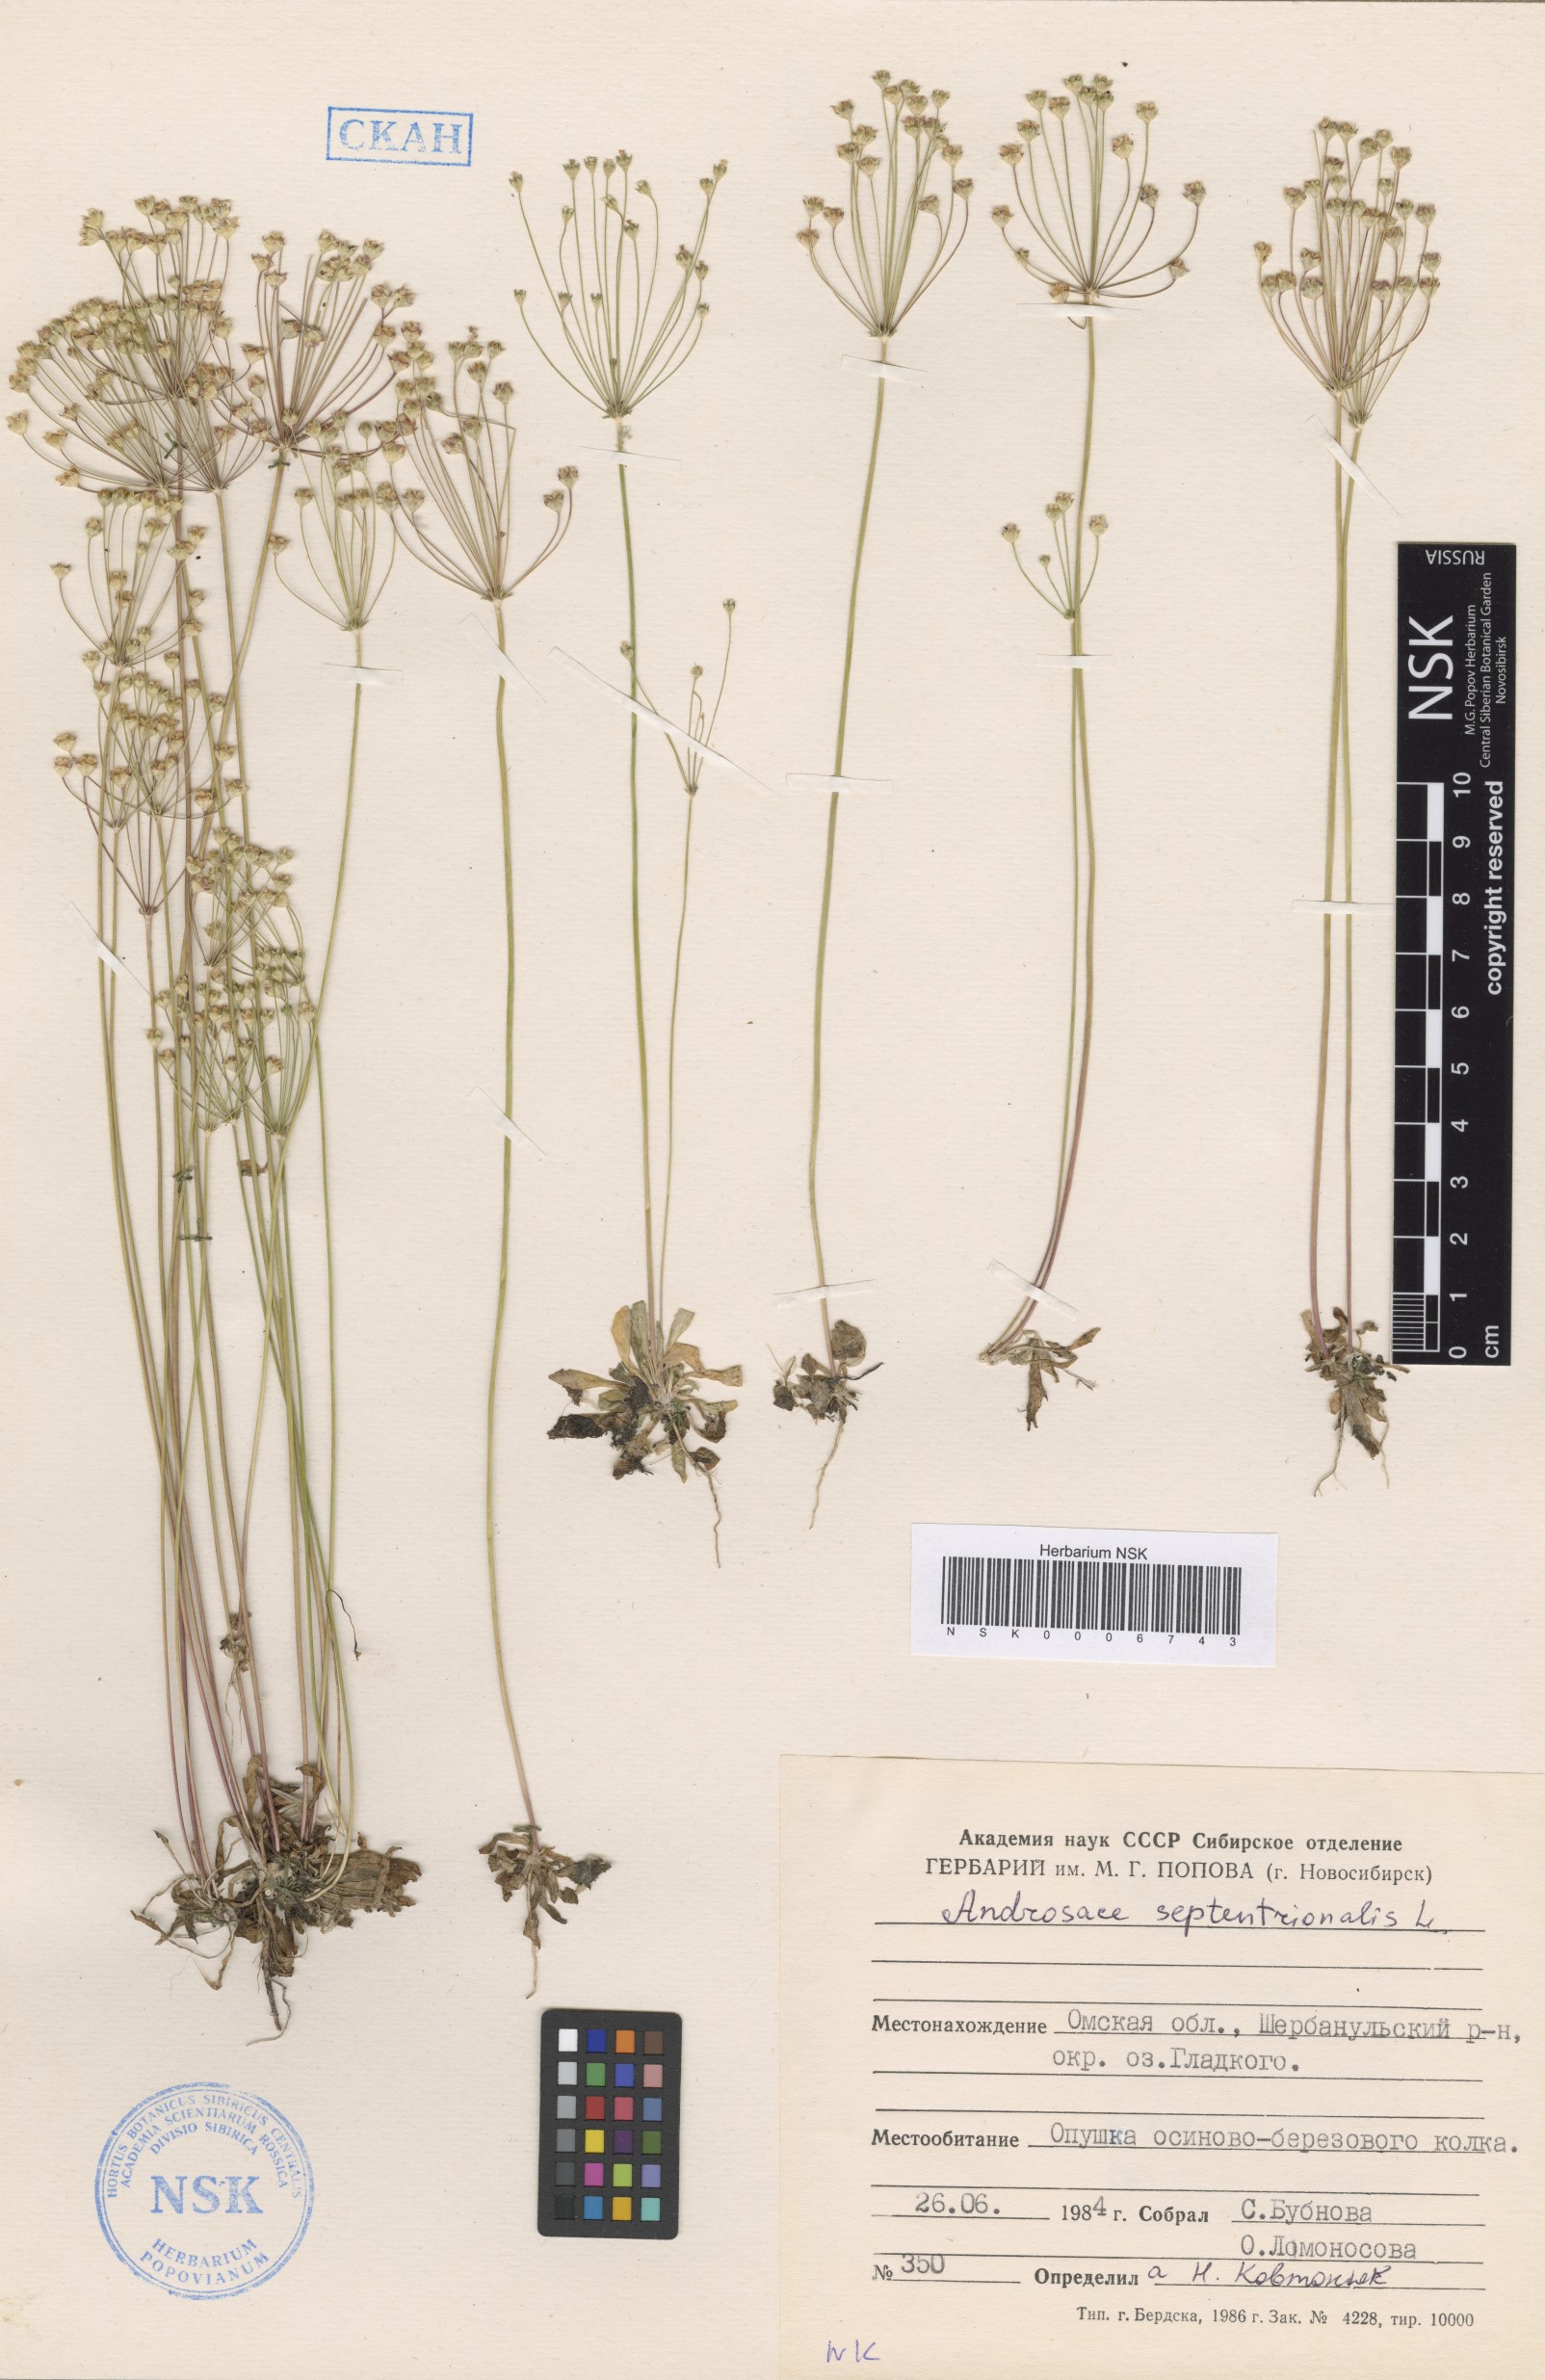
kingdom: Plantae
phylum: Tracheophyta
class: Magnoliopsida
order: Ericales
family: Primulaceae
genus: Androsace
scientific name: Androsace septentrionalis
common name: Hairy northern fairy-candelabra
